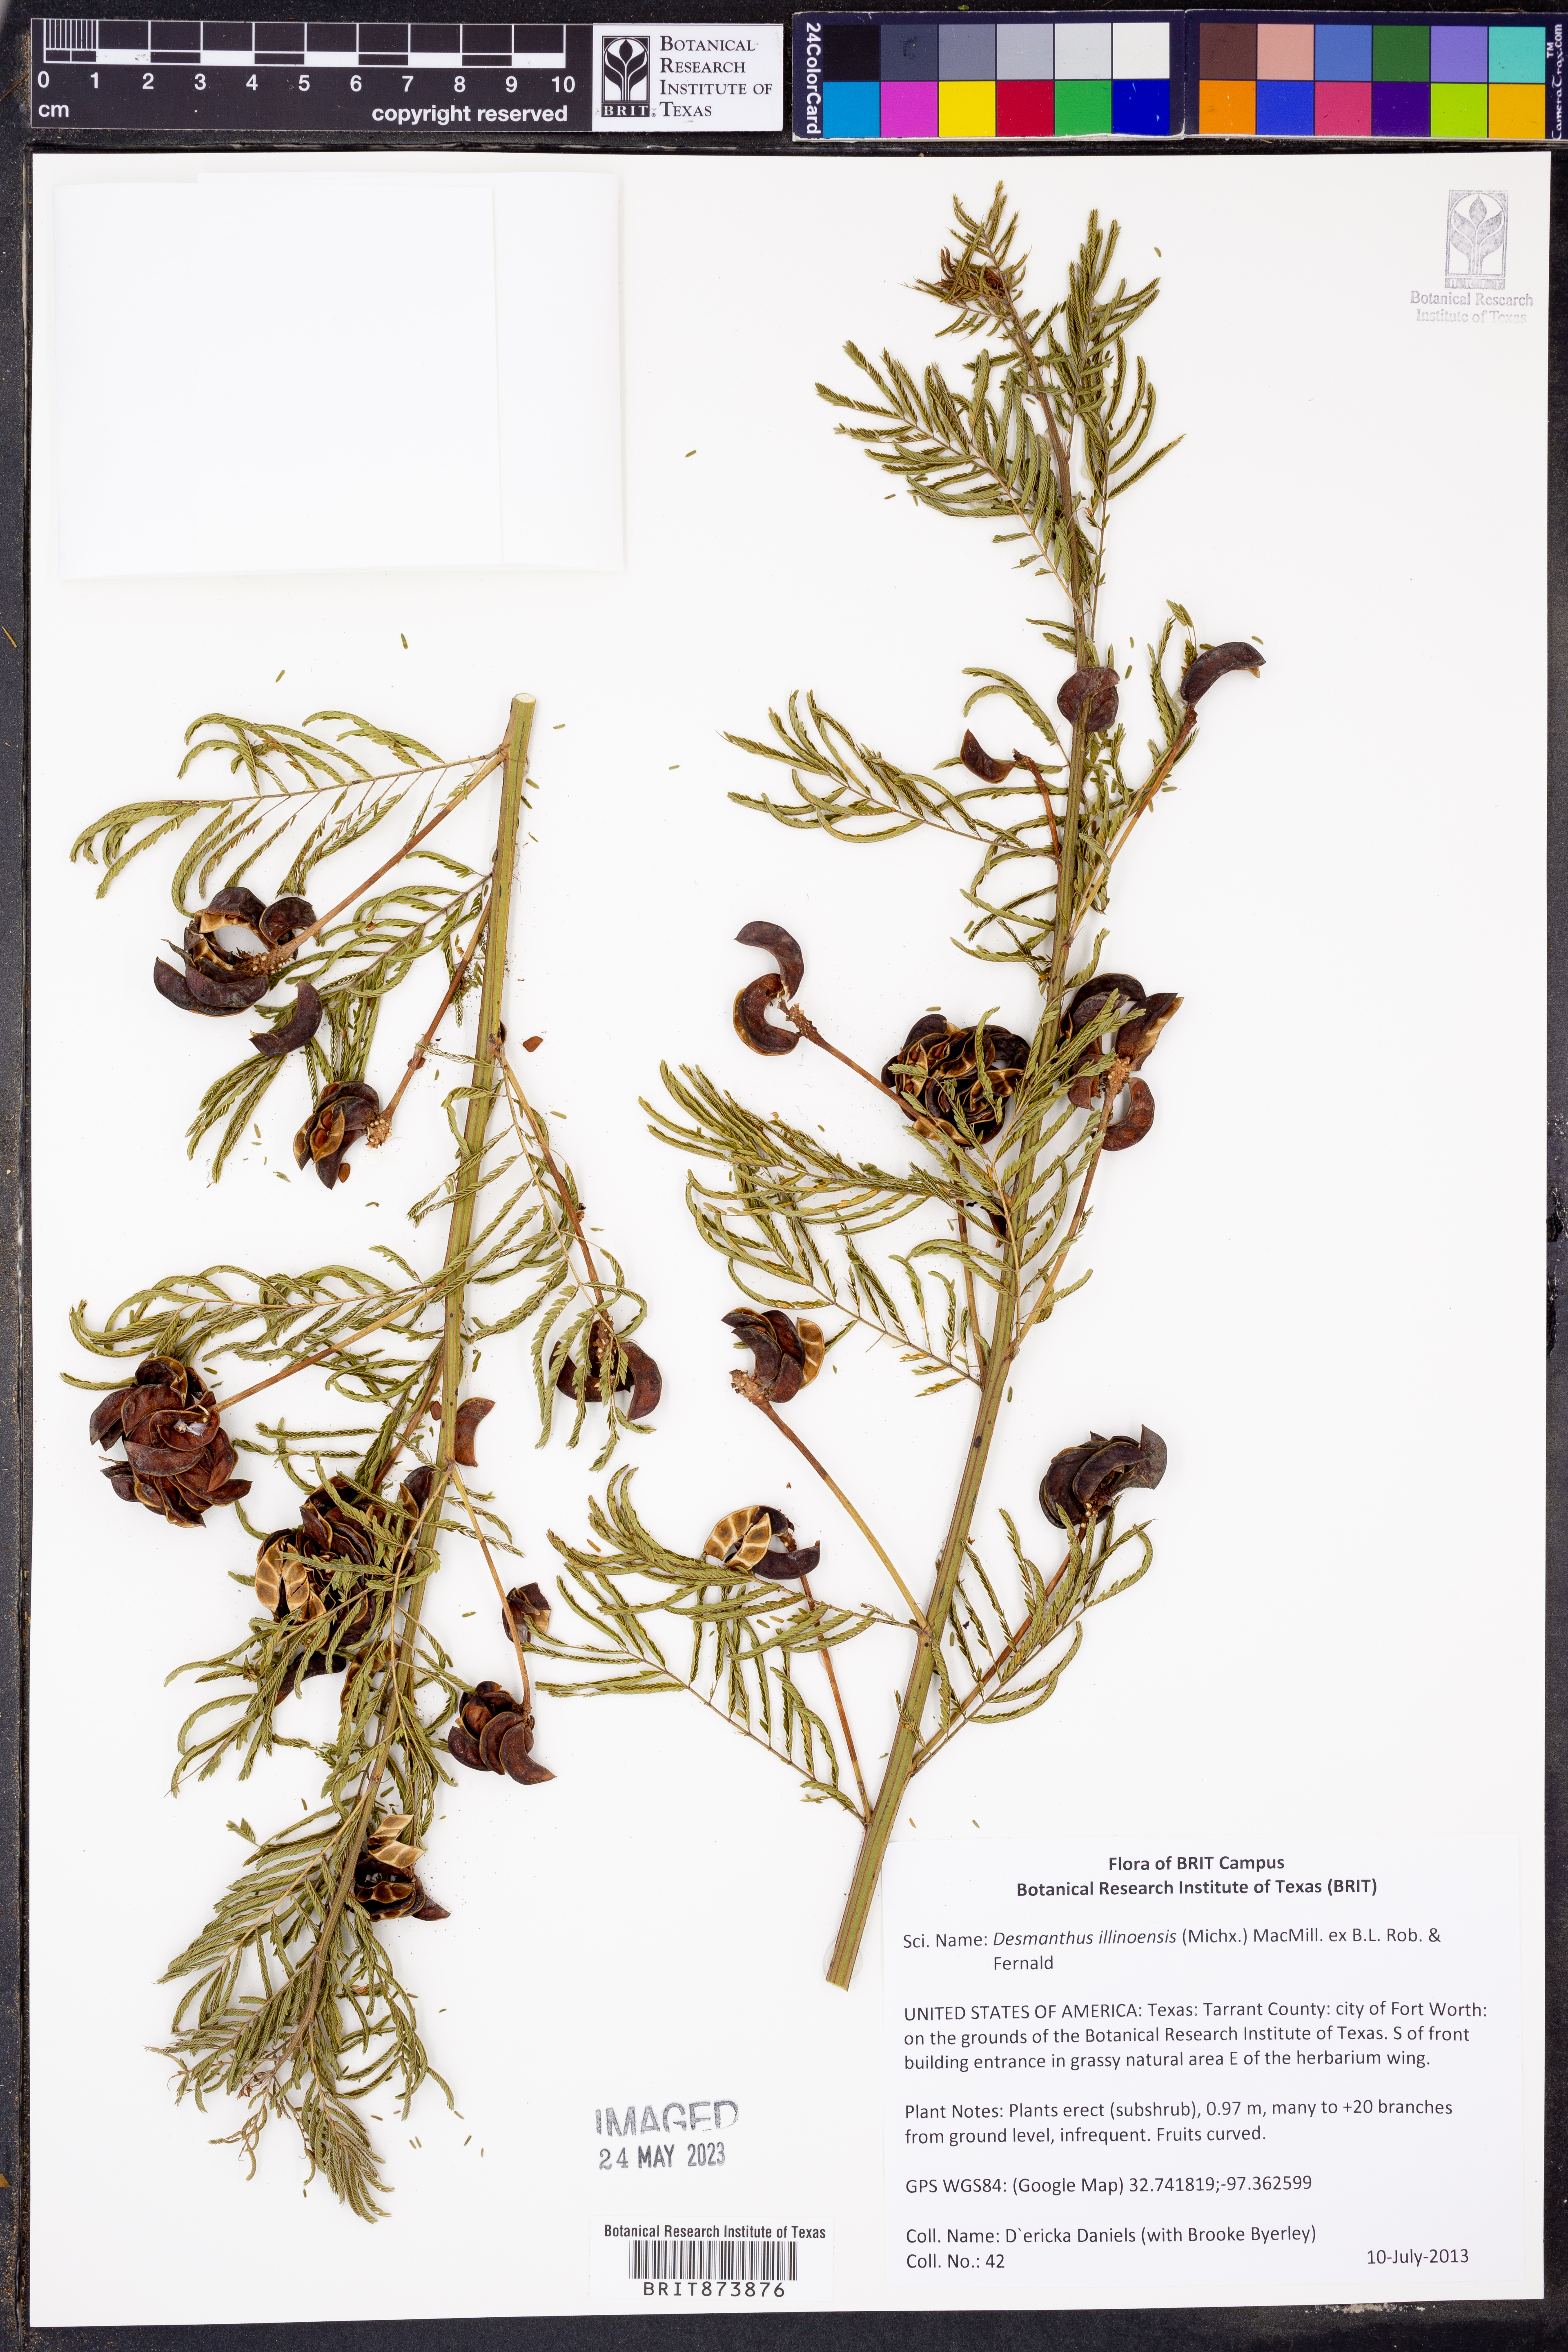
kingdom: Plantae
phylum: Tracheophyta
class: Magnoliopsida
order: Fabales
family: Fabaceae
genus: Desmanthus
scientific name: Desmanthus illinoensis
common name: Illinois bundle-flower
